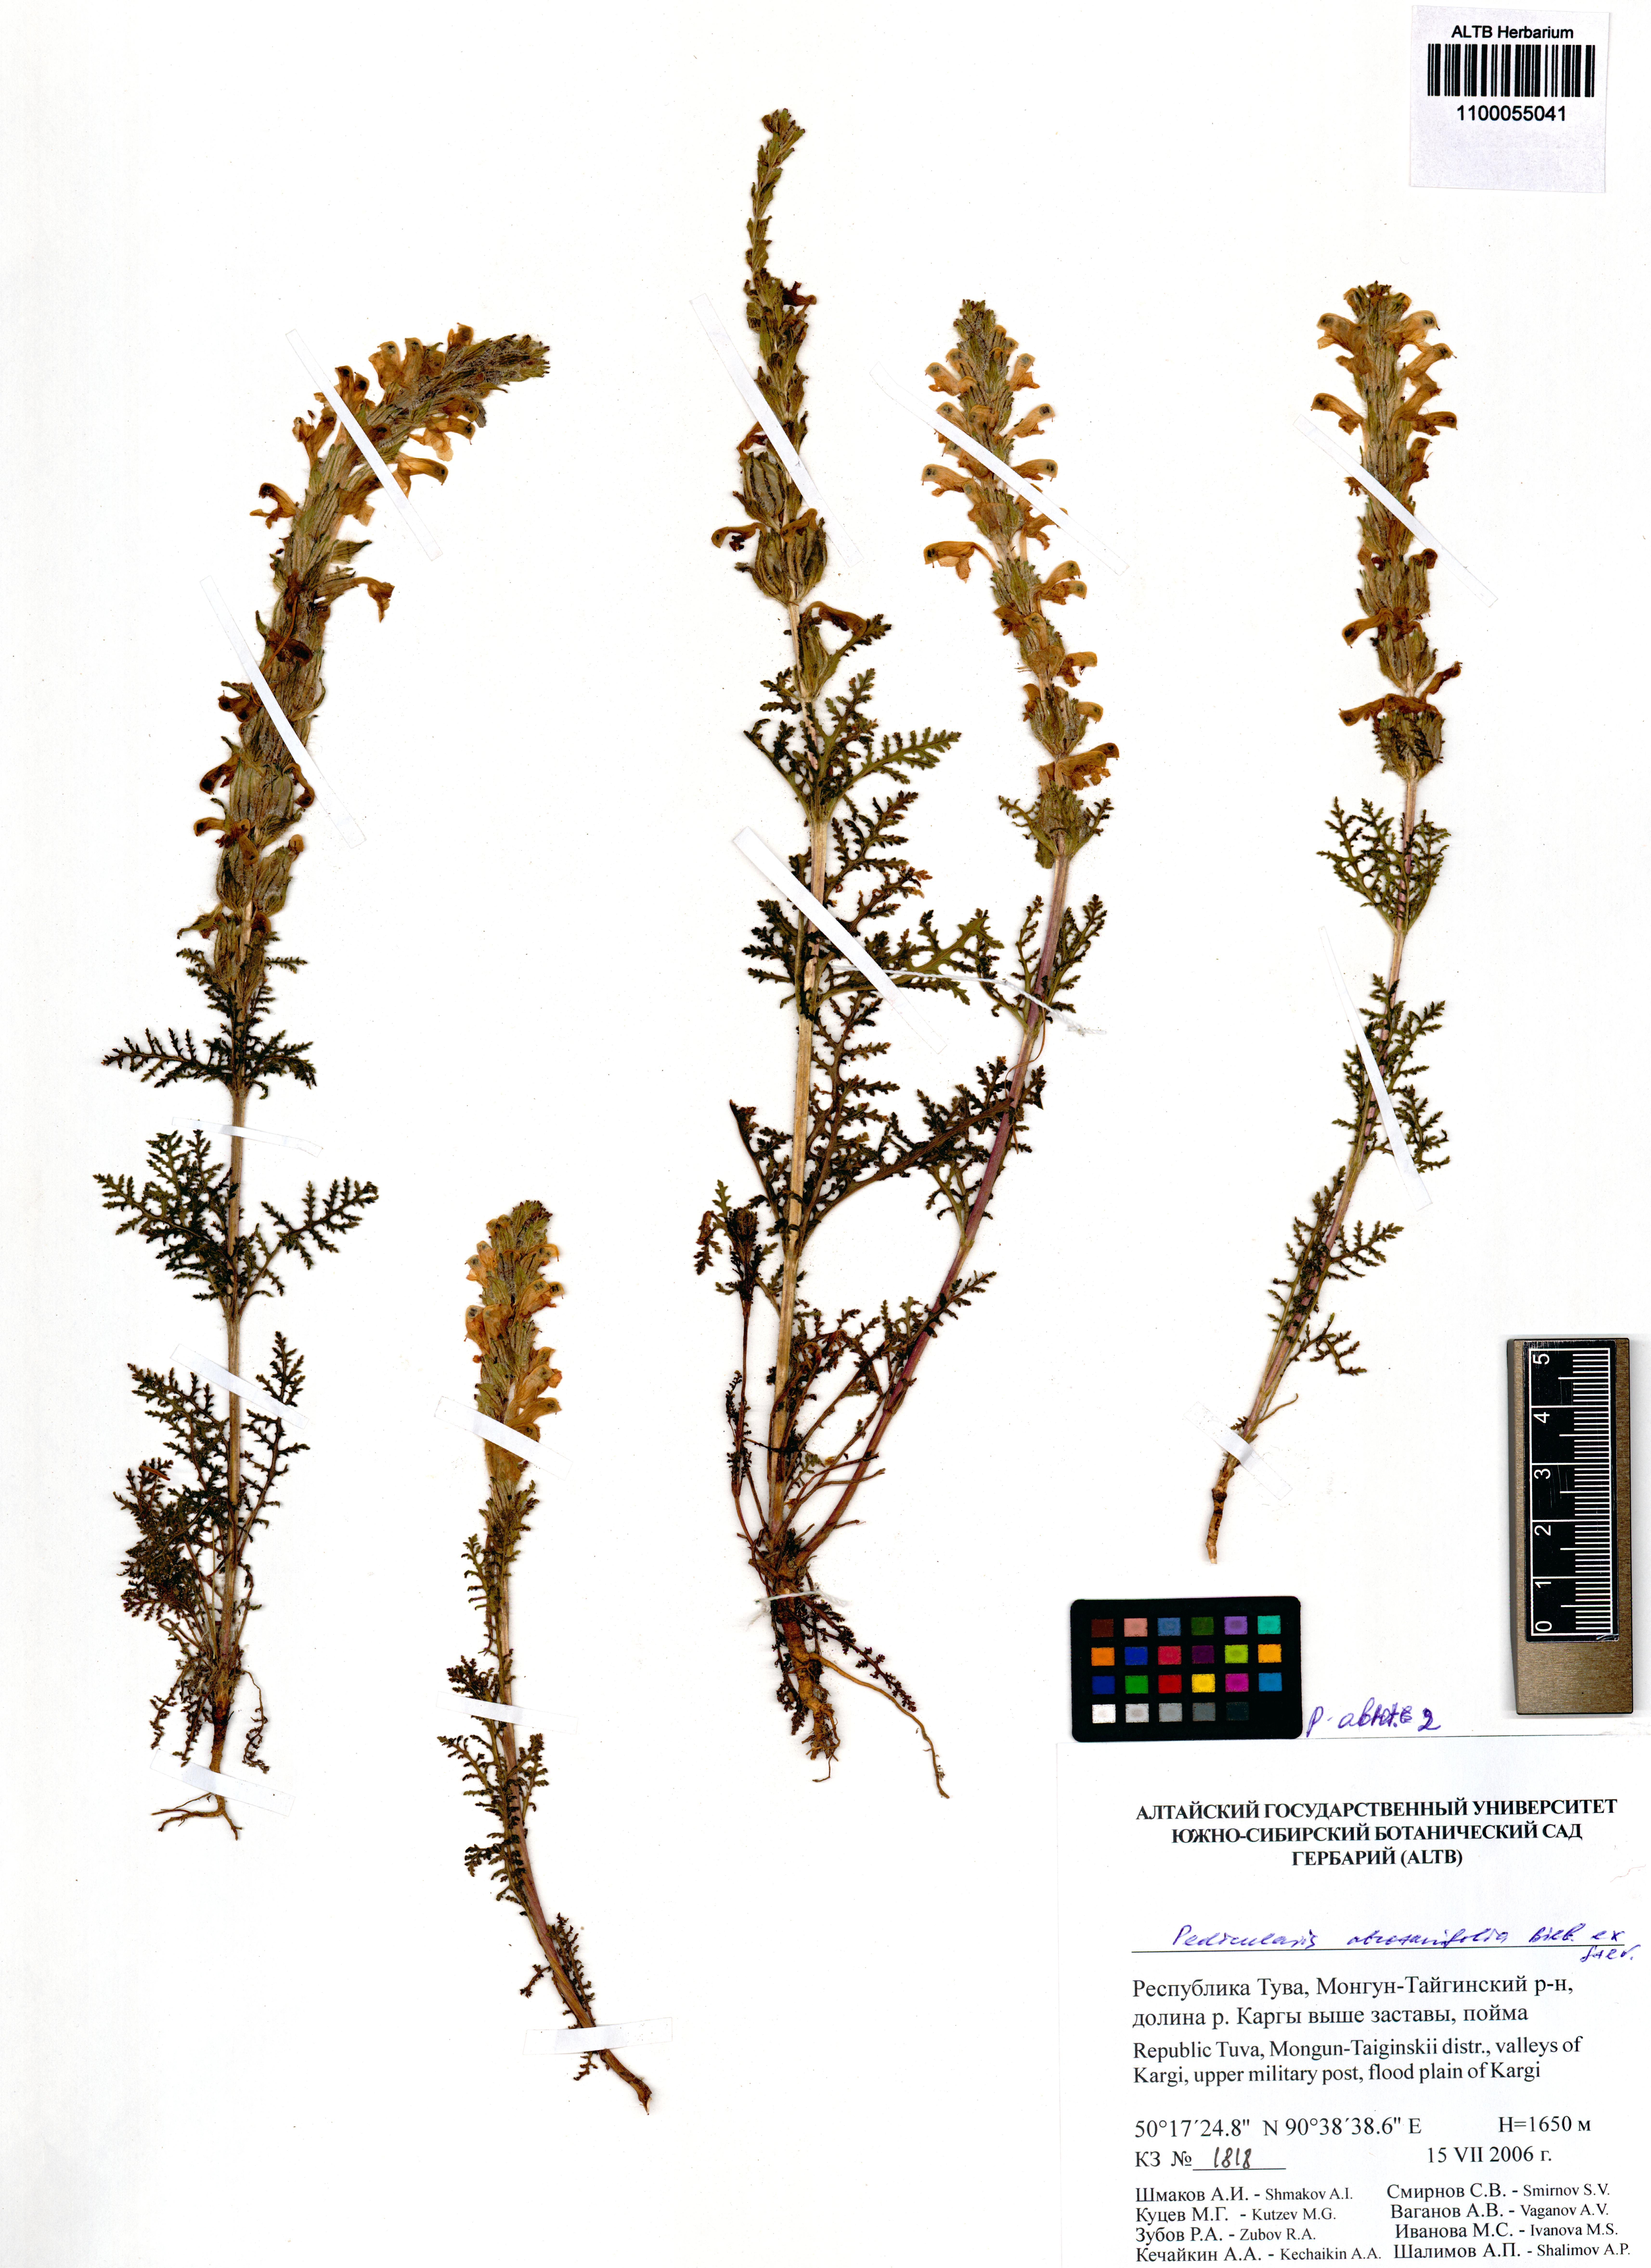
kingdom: Plantae
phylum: Tracheophyta
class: Magnoliopsida
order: Lamiales
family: Orobanchaceae
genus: Pedicularis
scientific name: Pedicularis abrotanifolia
